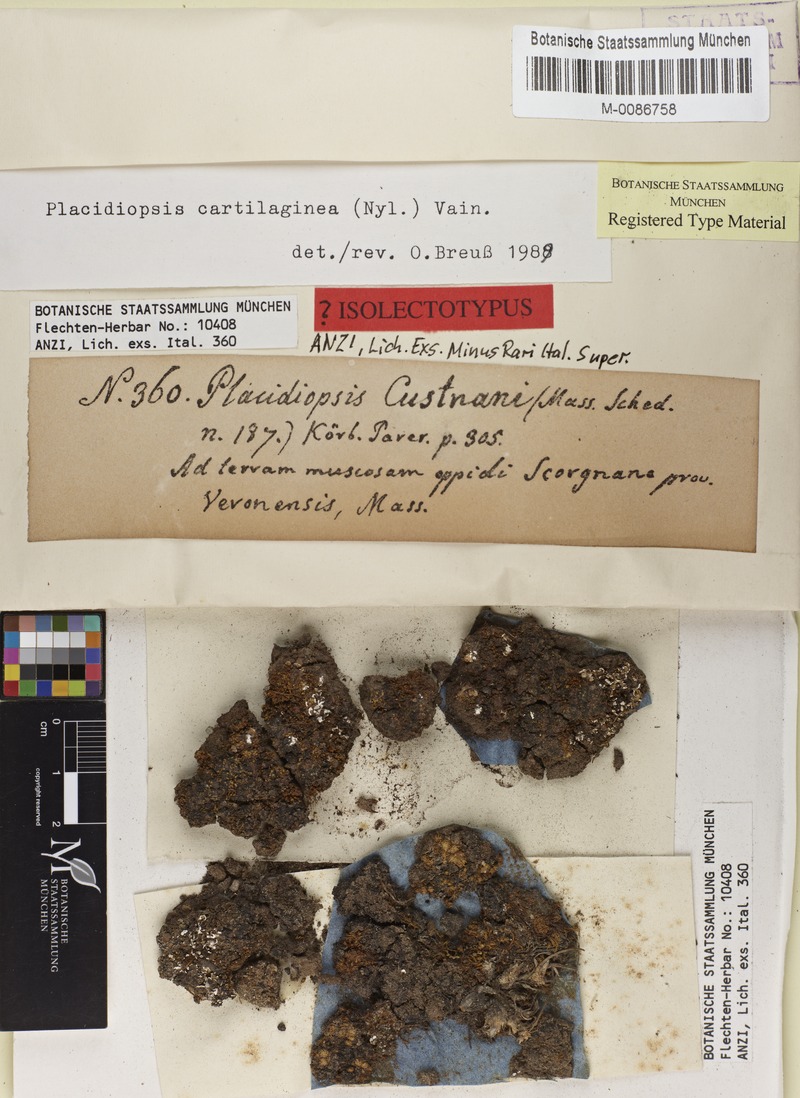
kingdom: Fungi
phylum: Ascomycota
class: Eurotiomycetes
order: Verrucariales
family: Verrucariaceae
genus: Placidiopsis
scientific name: Placidiopsis custnani
